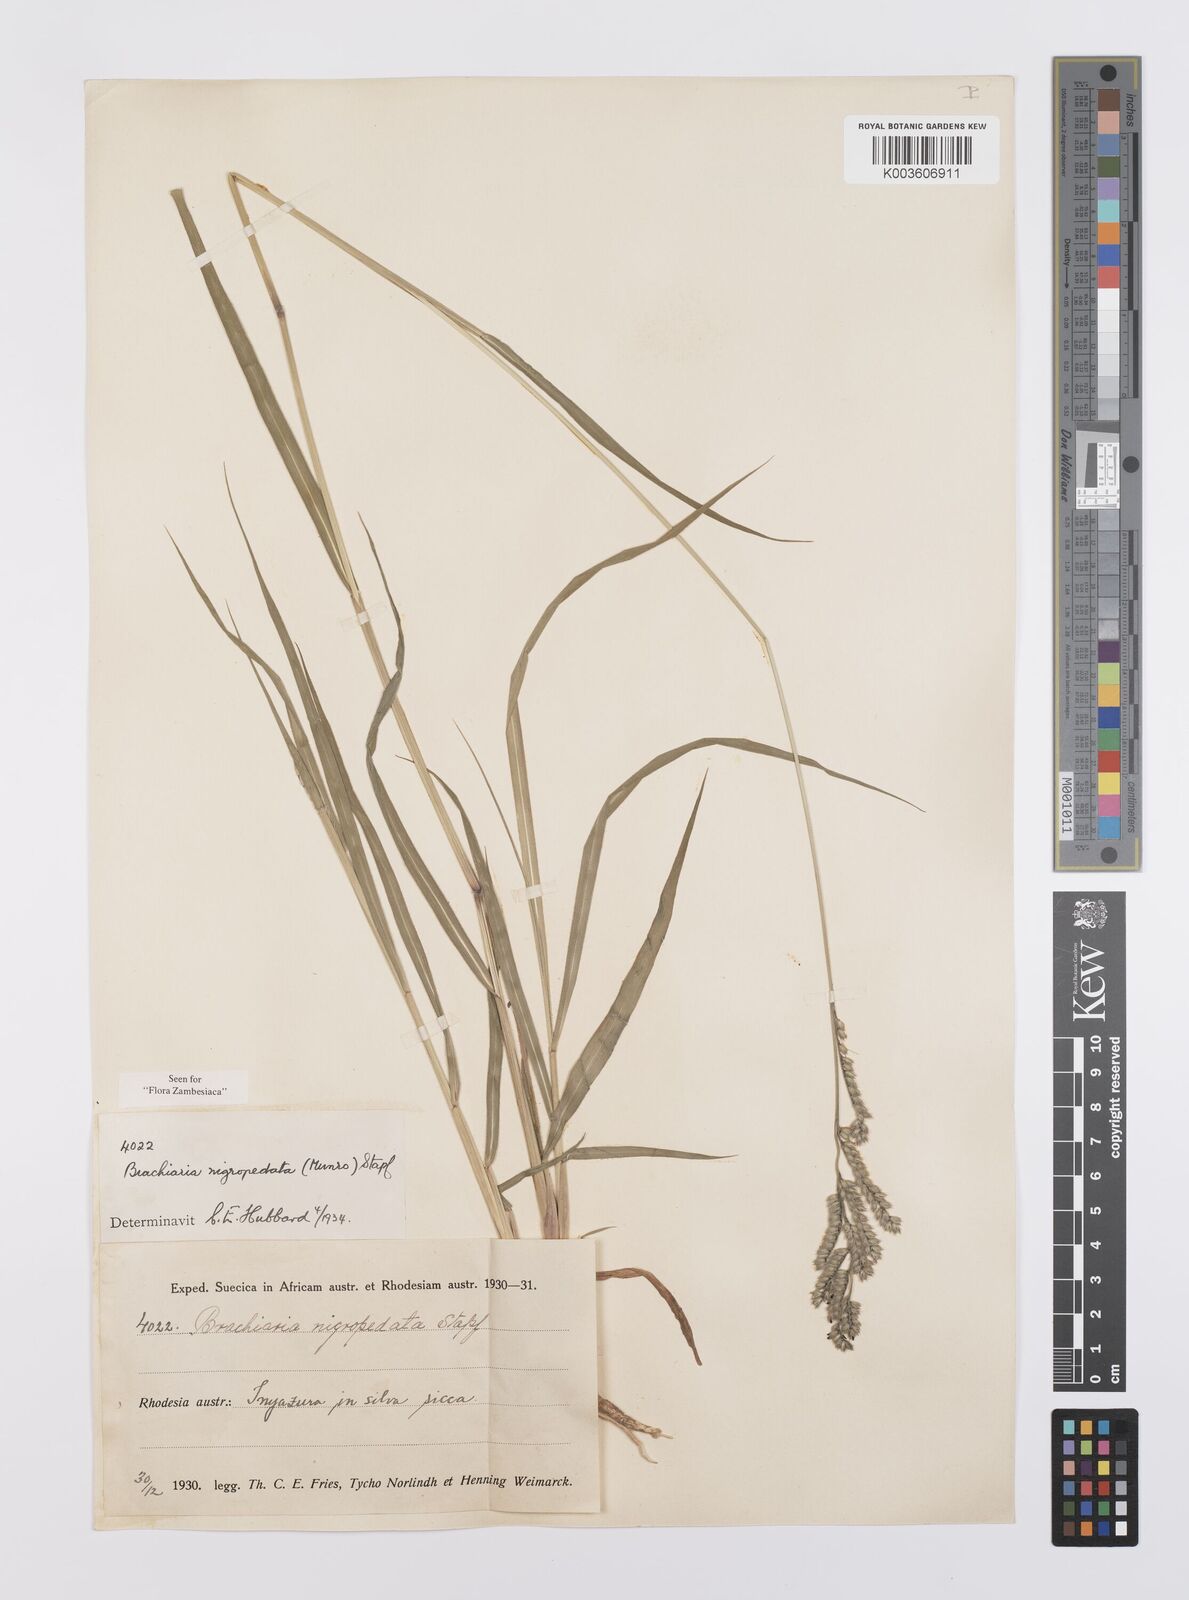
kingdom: Plantae
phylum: Tracheophyta
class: Liliopsida
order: Poales
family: Poaceae
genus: Urochloa
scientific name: Urochloa nigropedata
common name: Spotted signal grass
